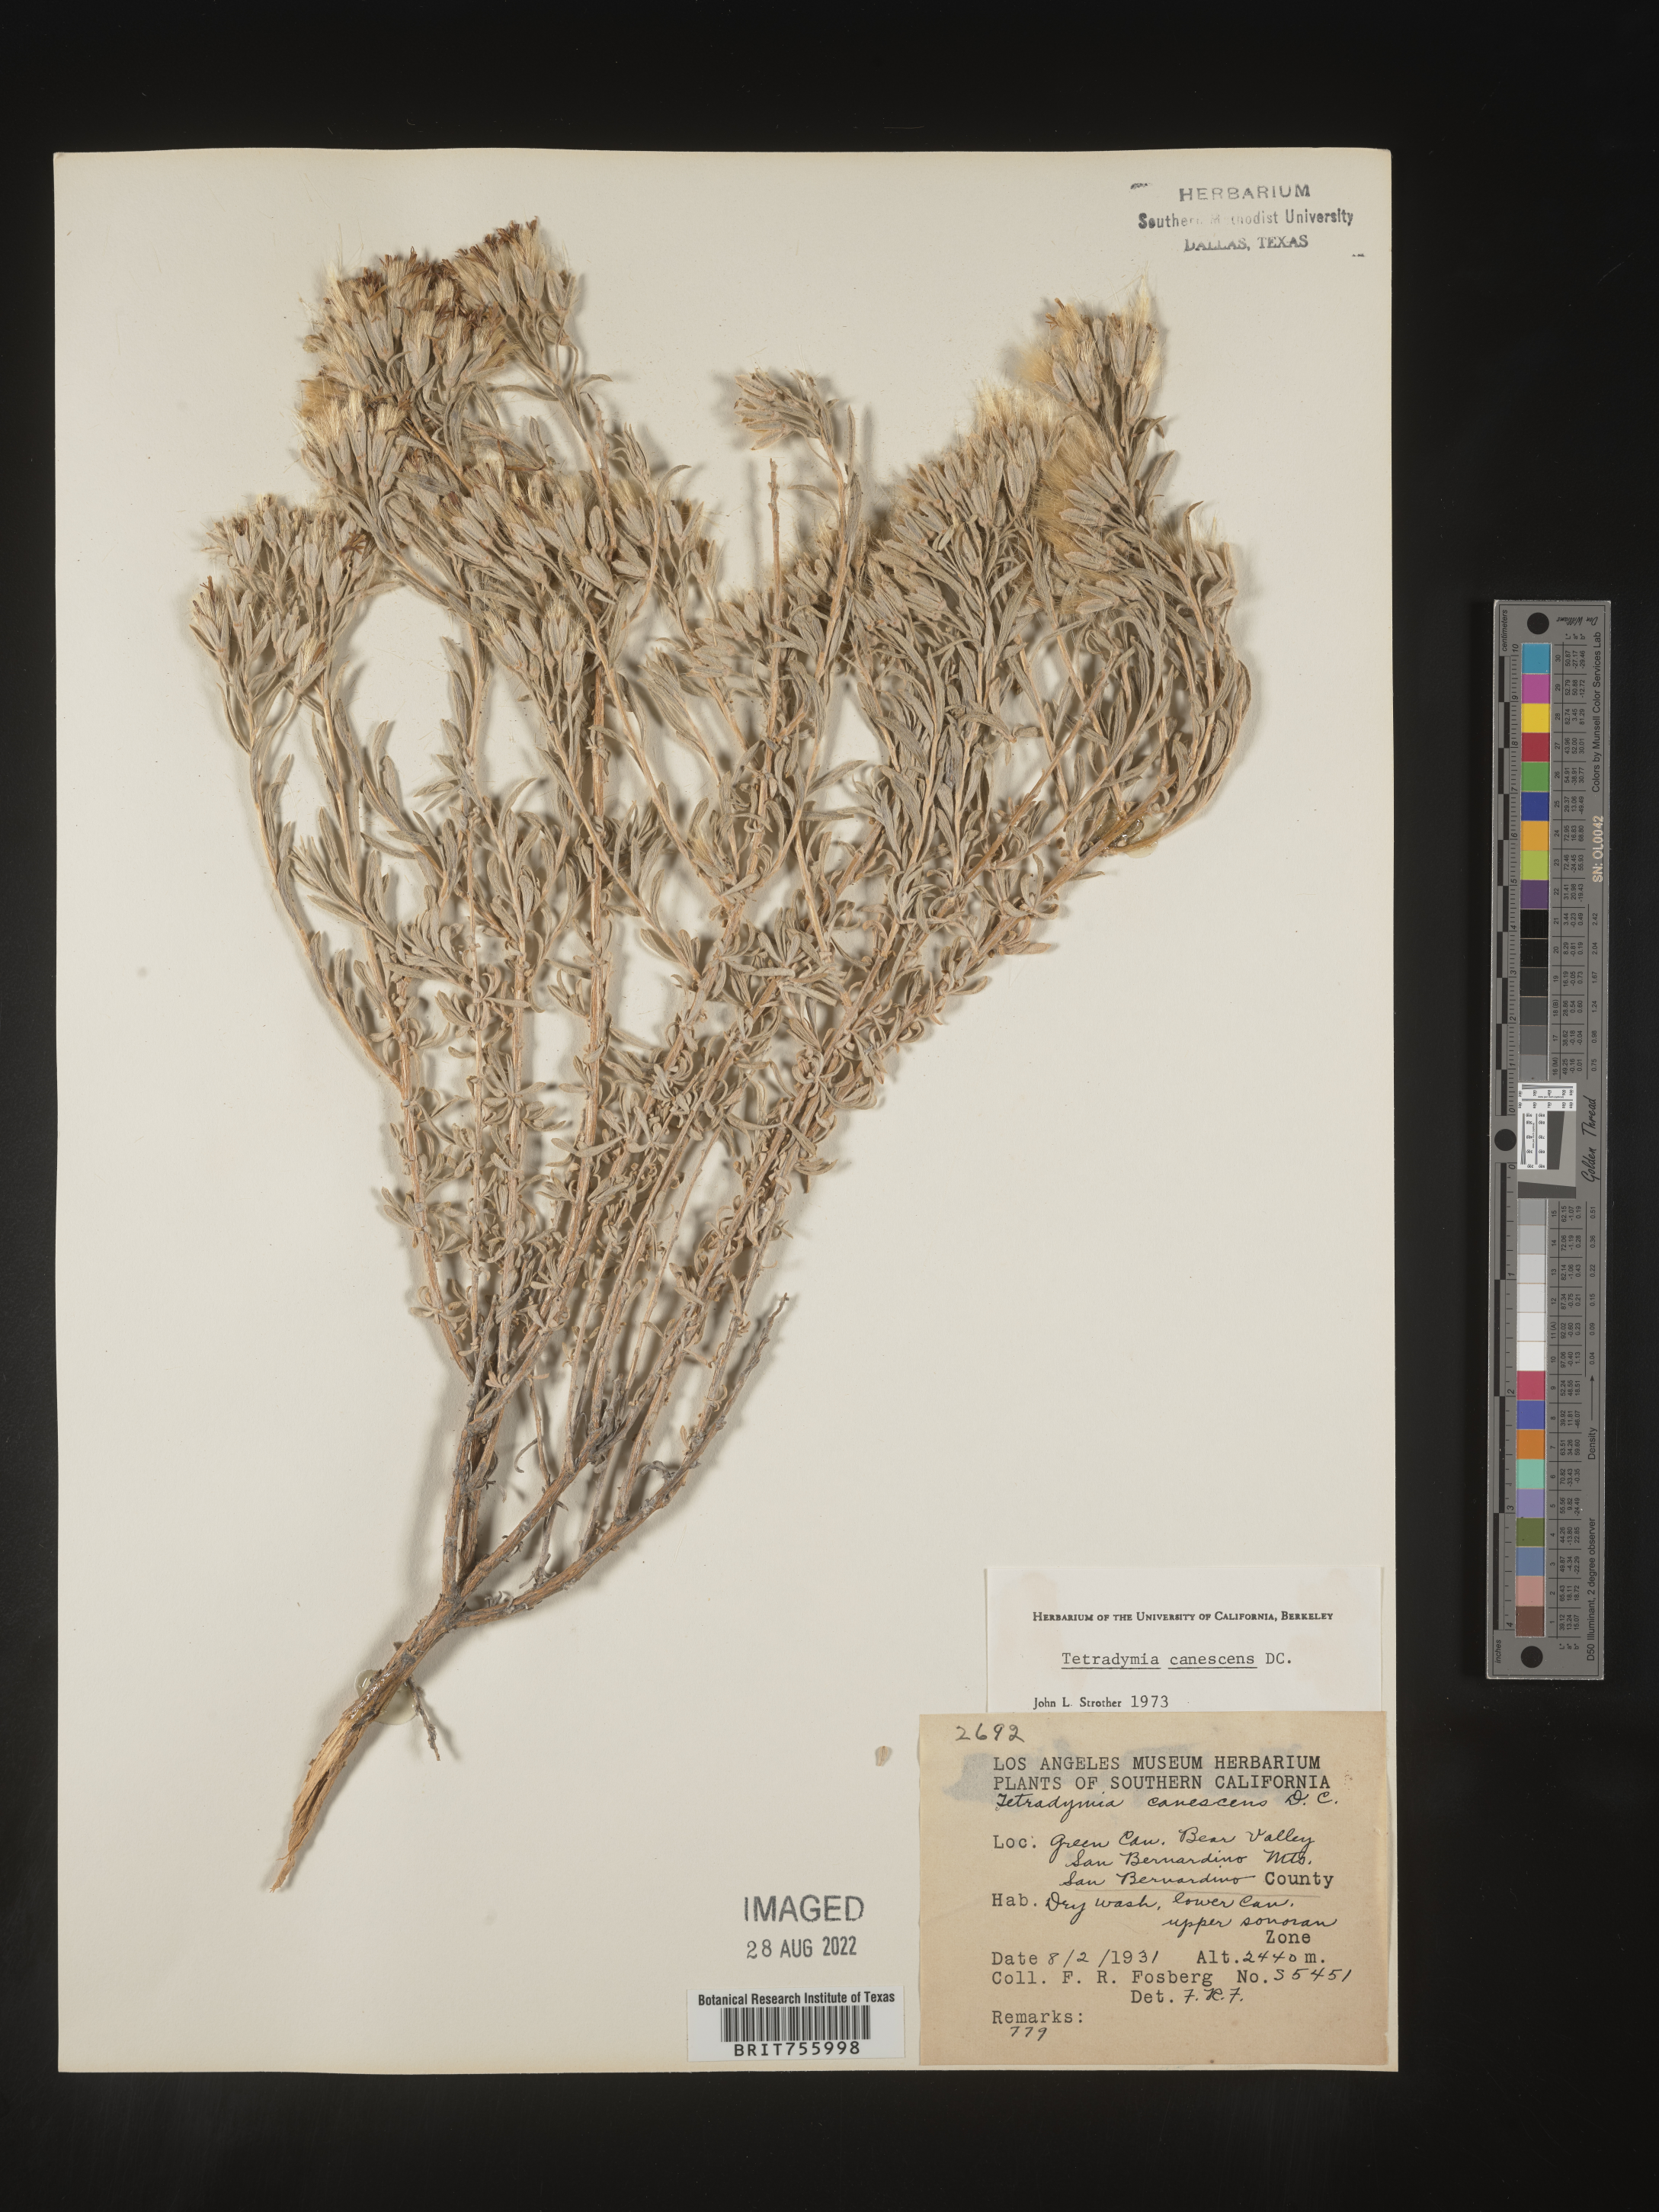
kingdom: Plantae
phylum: Tracheophyta
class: Magnoliopsida
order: Asterales
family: Asteraceae
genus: Tetradymia
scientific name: Tetradymia canescens
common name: Spineless horsebrush
